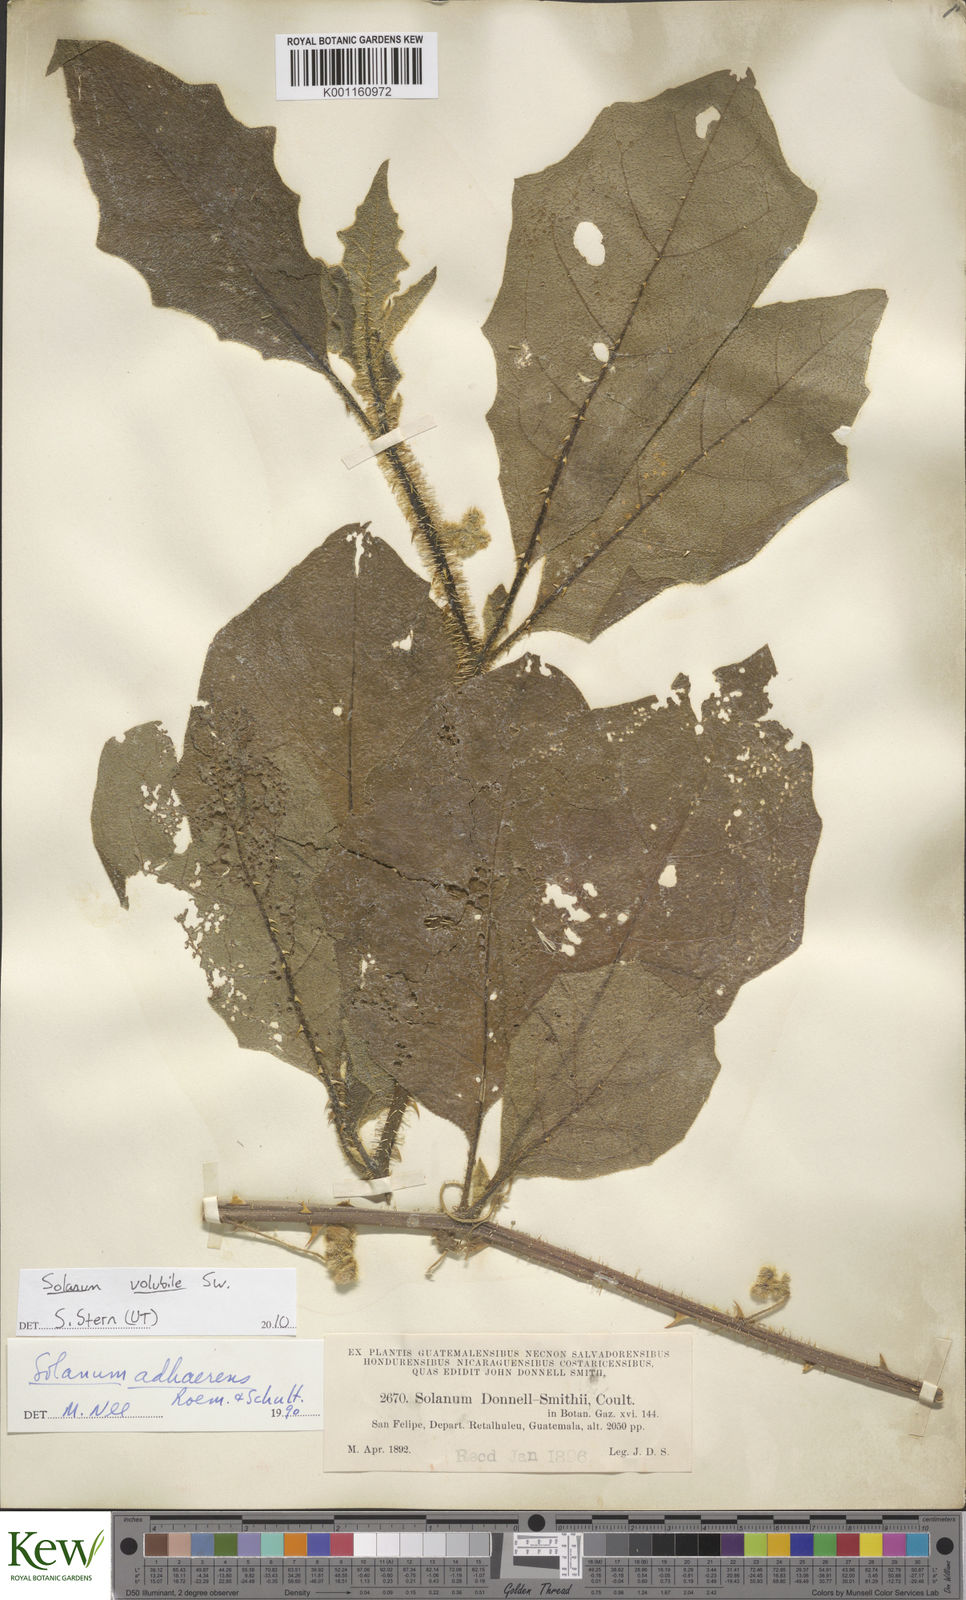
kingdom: Plantae
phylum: Tracheophyta
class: Magnoliopsida
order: Solanales
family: Solanaceae
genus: Solanum
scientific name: Solanum volubile
